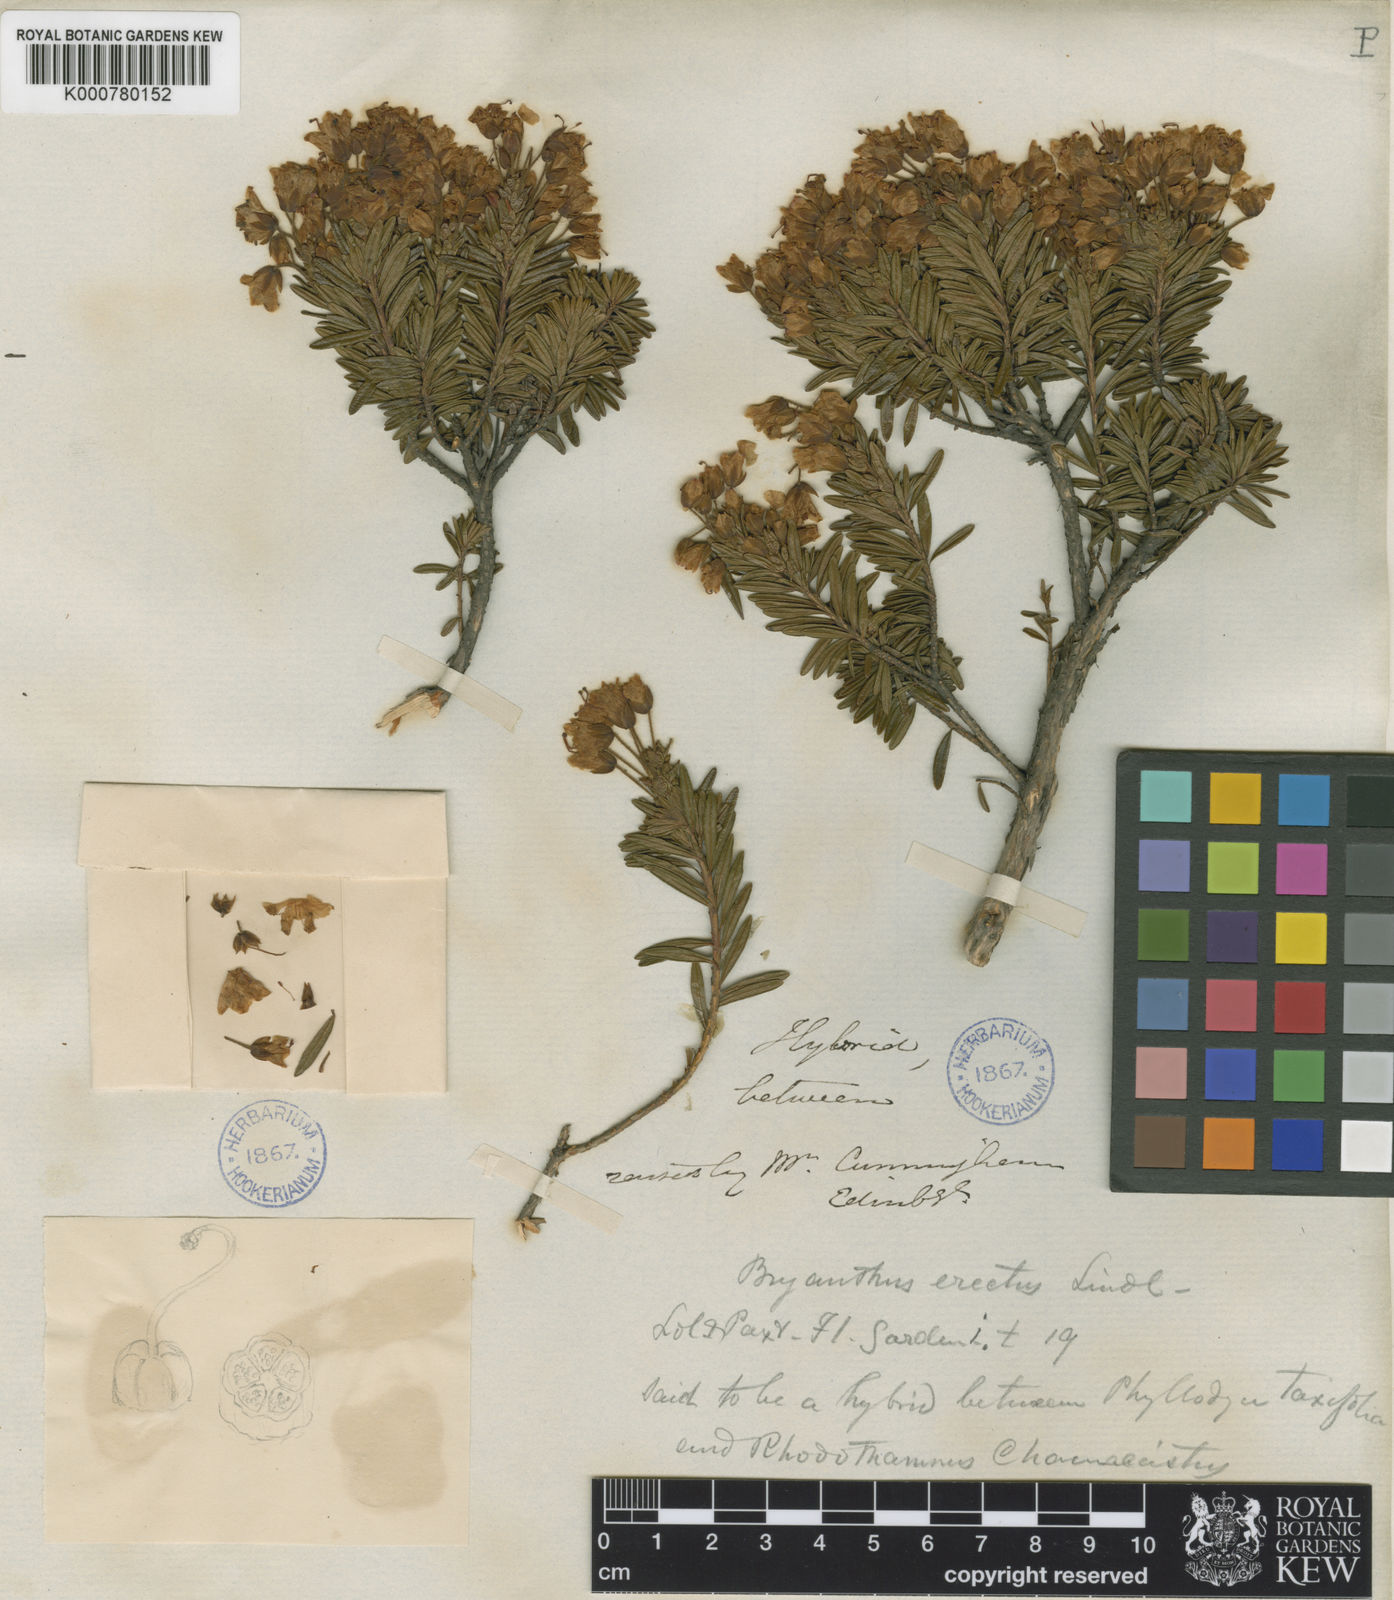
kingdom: Plantae
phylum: Tracheophyta
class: Magnoliopsida
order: Ericales
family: Ericaceae
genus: Phyllodoce
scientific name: Phyllodoce
